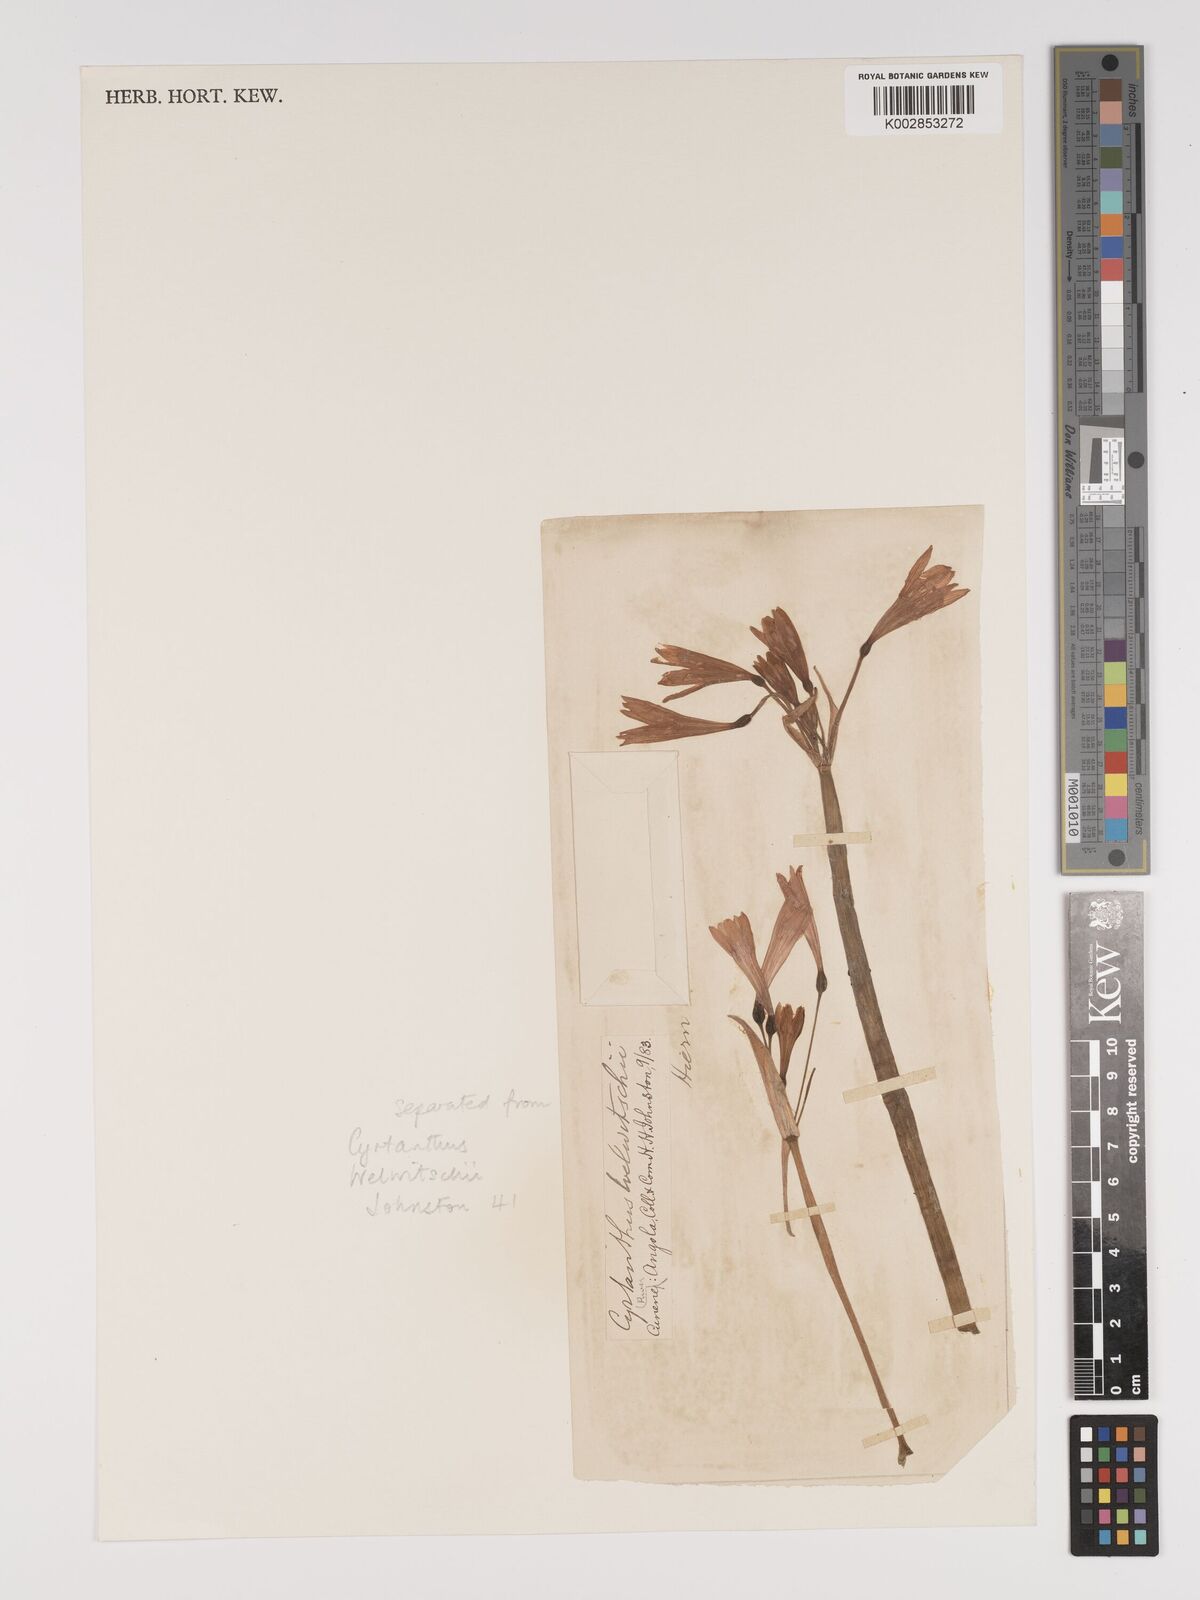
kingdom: Plantae
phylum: Tracheophyta
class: Liliopsida
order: Asparagales
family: Amaryllidaceae
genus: Cyrtanthus
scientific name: Cyrtanthus welwitschii
